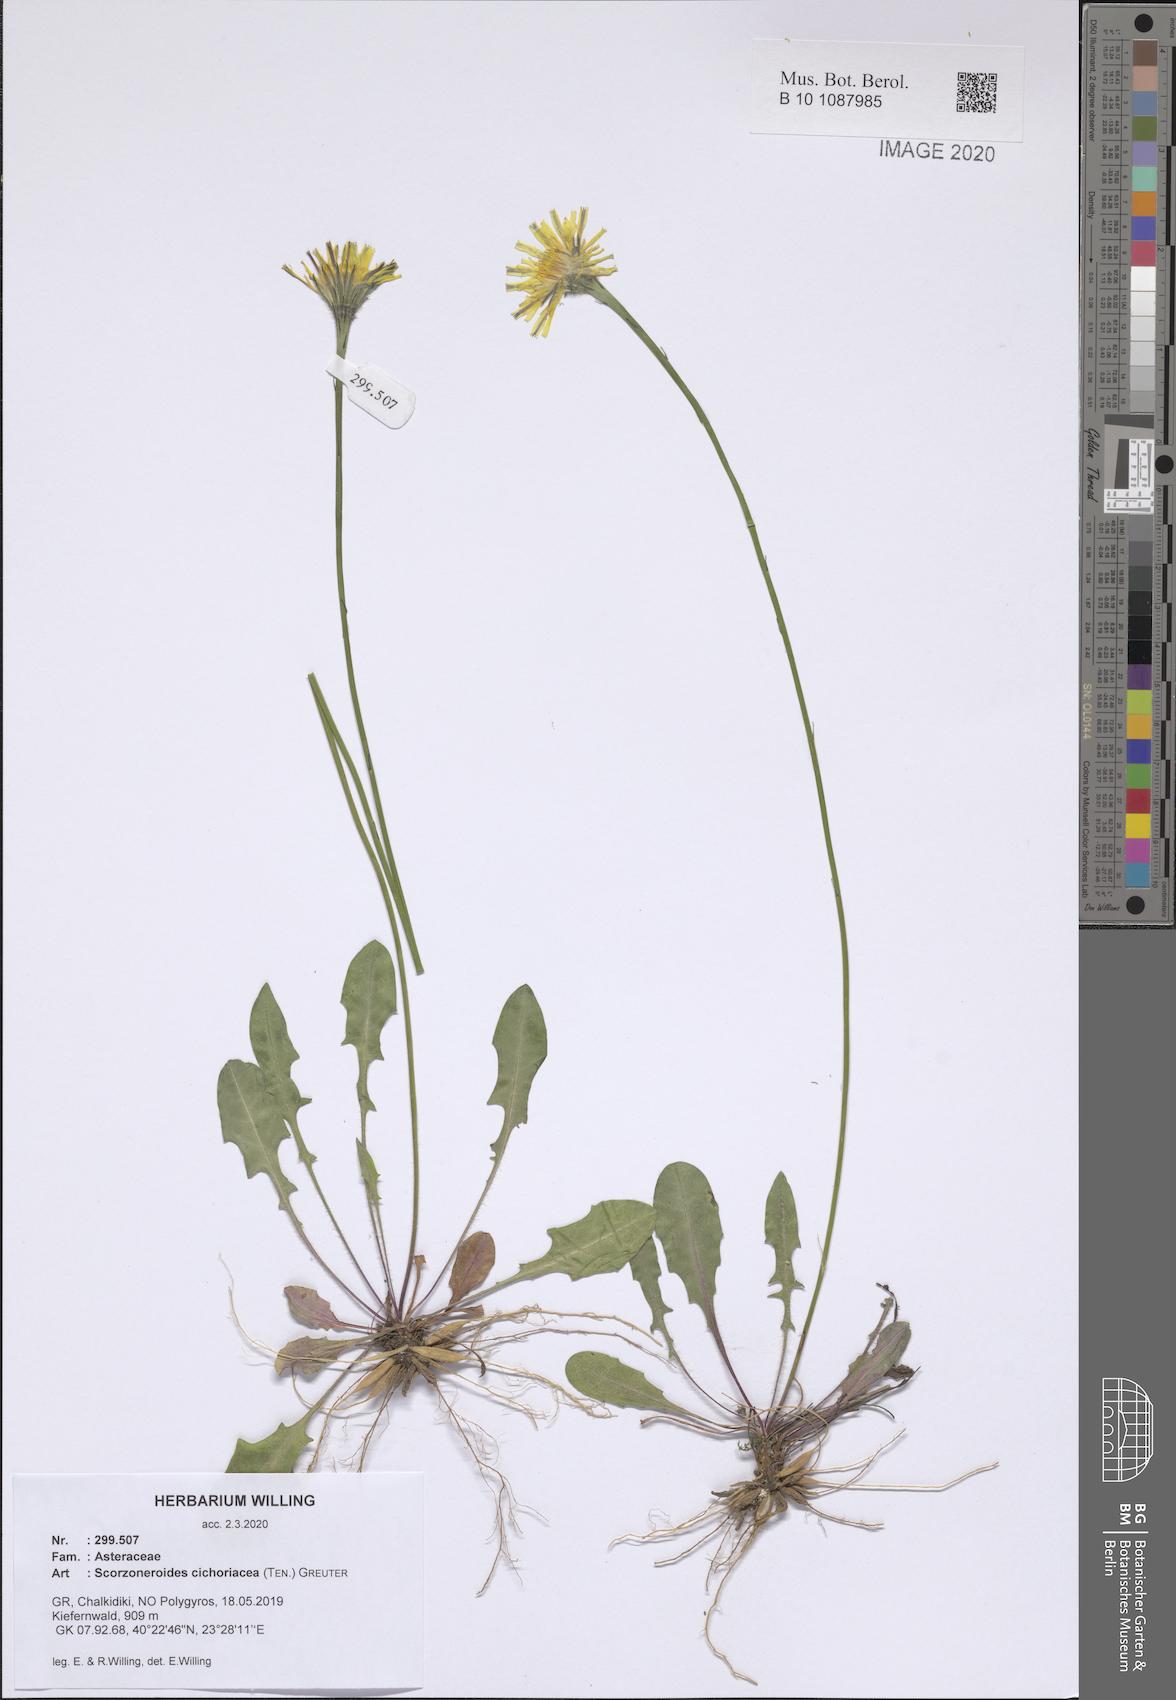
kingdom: Plantae
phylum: Tracheophyta
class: Magnoliopsida
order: Asterales
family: Asteraceae
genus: Scorzoneroides
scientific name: Scorzoneroides cichoriacea
